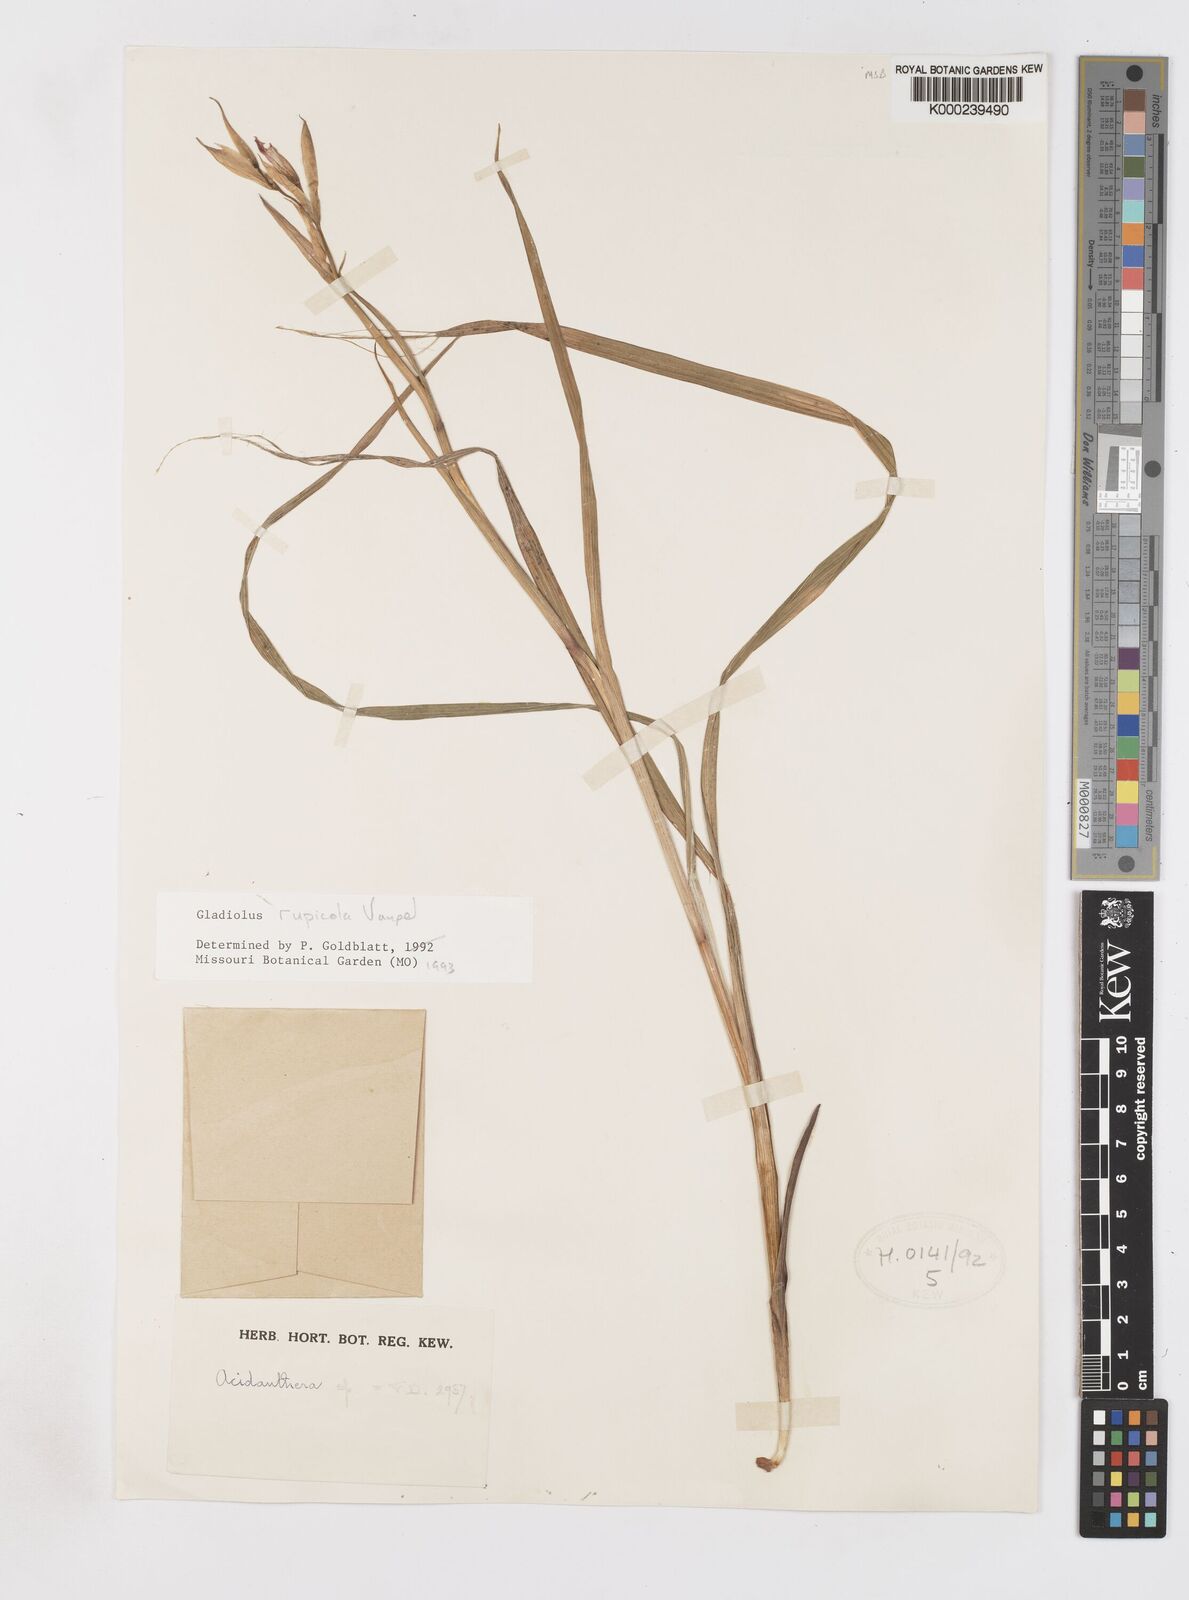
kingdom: Plantae
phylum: Tracheophyta
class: Liliopsida
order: Asparagales
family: Iridaceae
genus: Gladiolus
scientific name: Gladiolus rupicola
